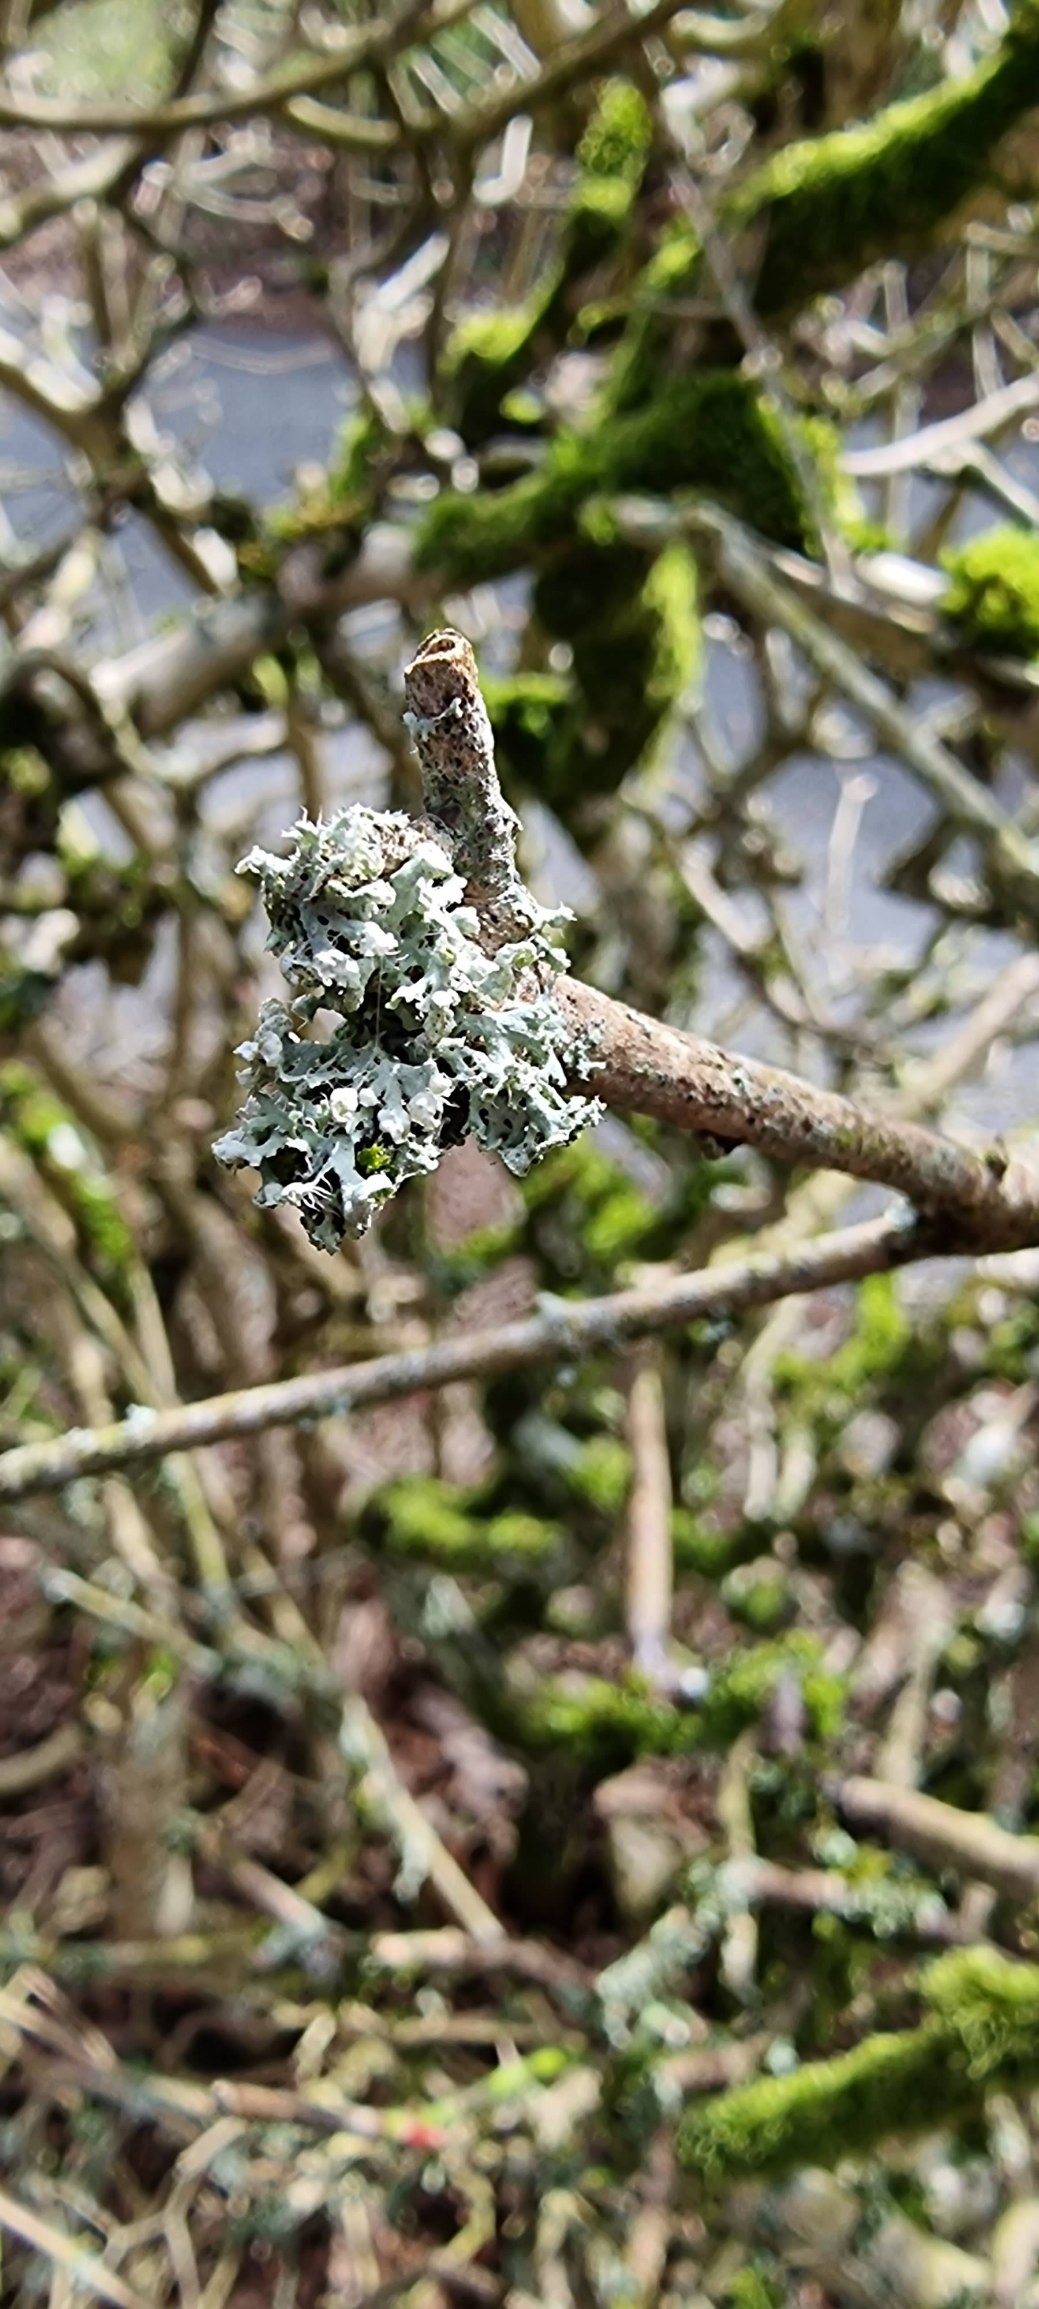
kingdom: Fungi
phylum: Ascomycota
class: Lecanoromycetes
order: Caliciales
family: Physciaceae
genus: Physcia
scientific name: Physcia adscendens
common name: Hætte-rosetlav
